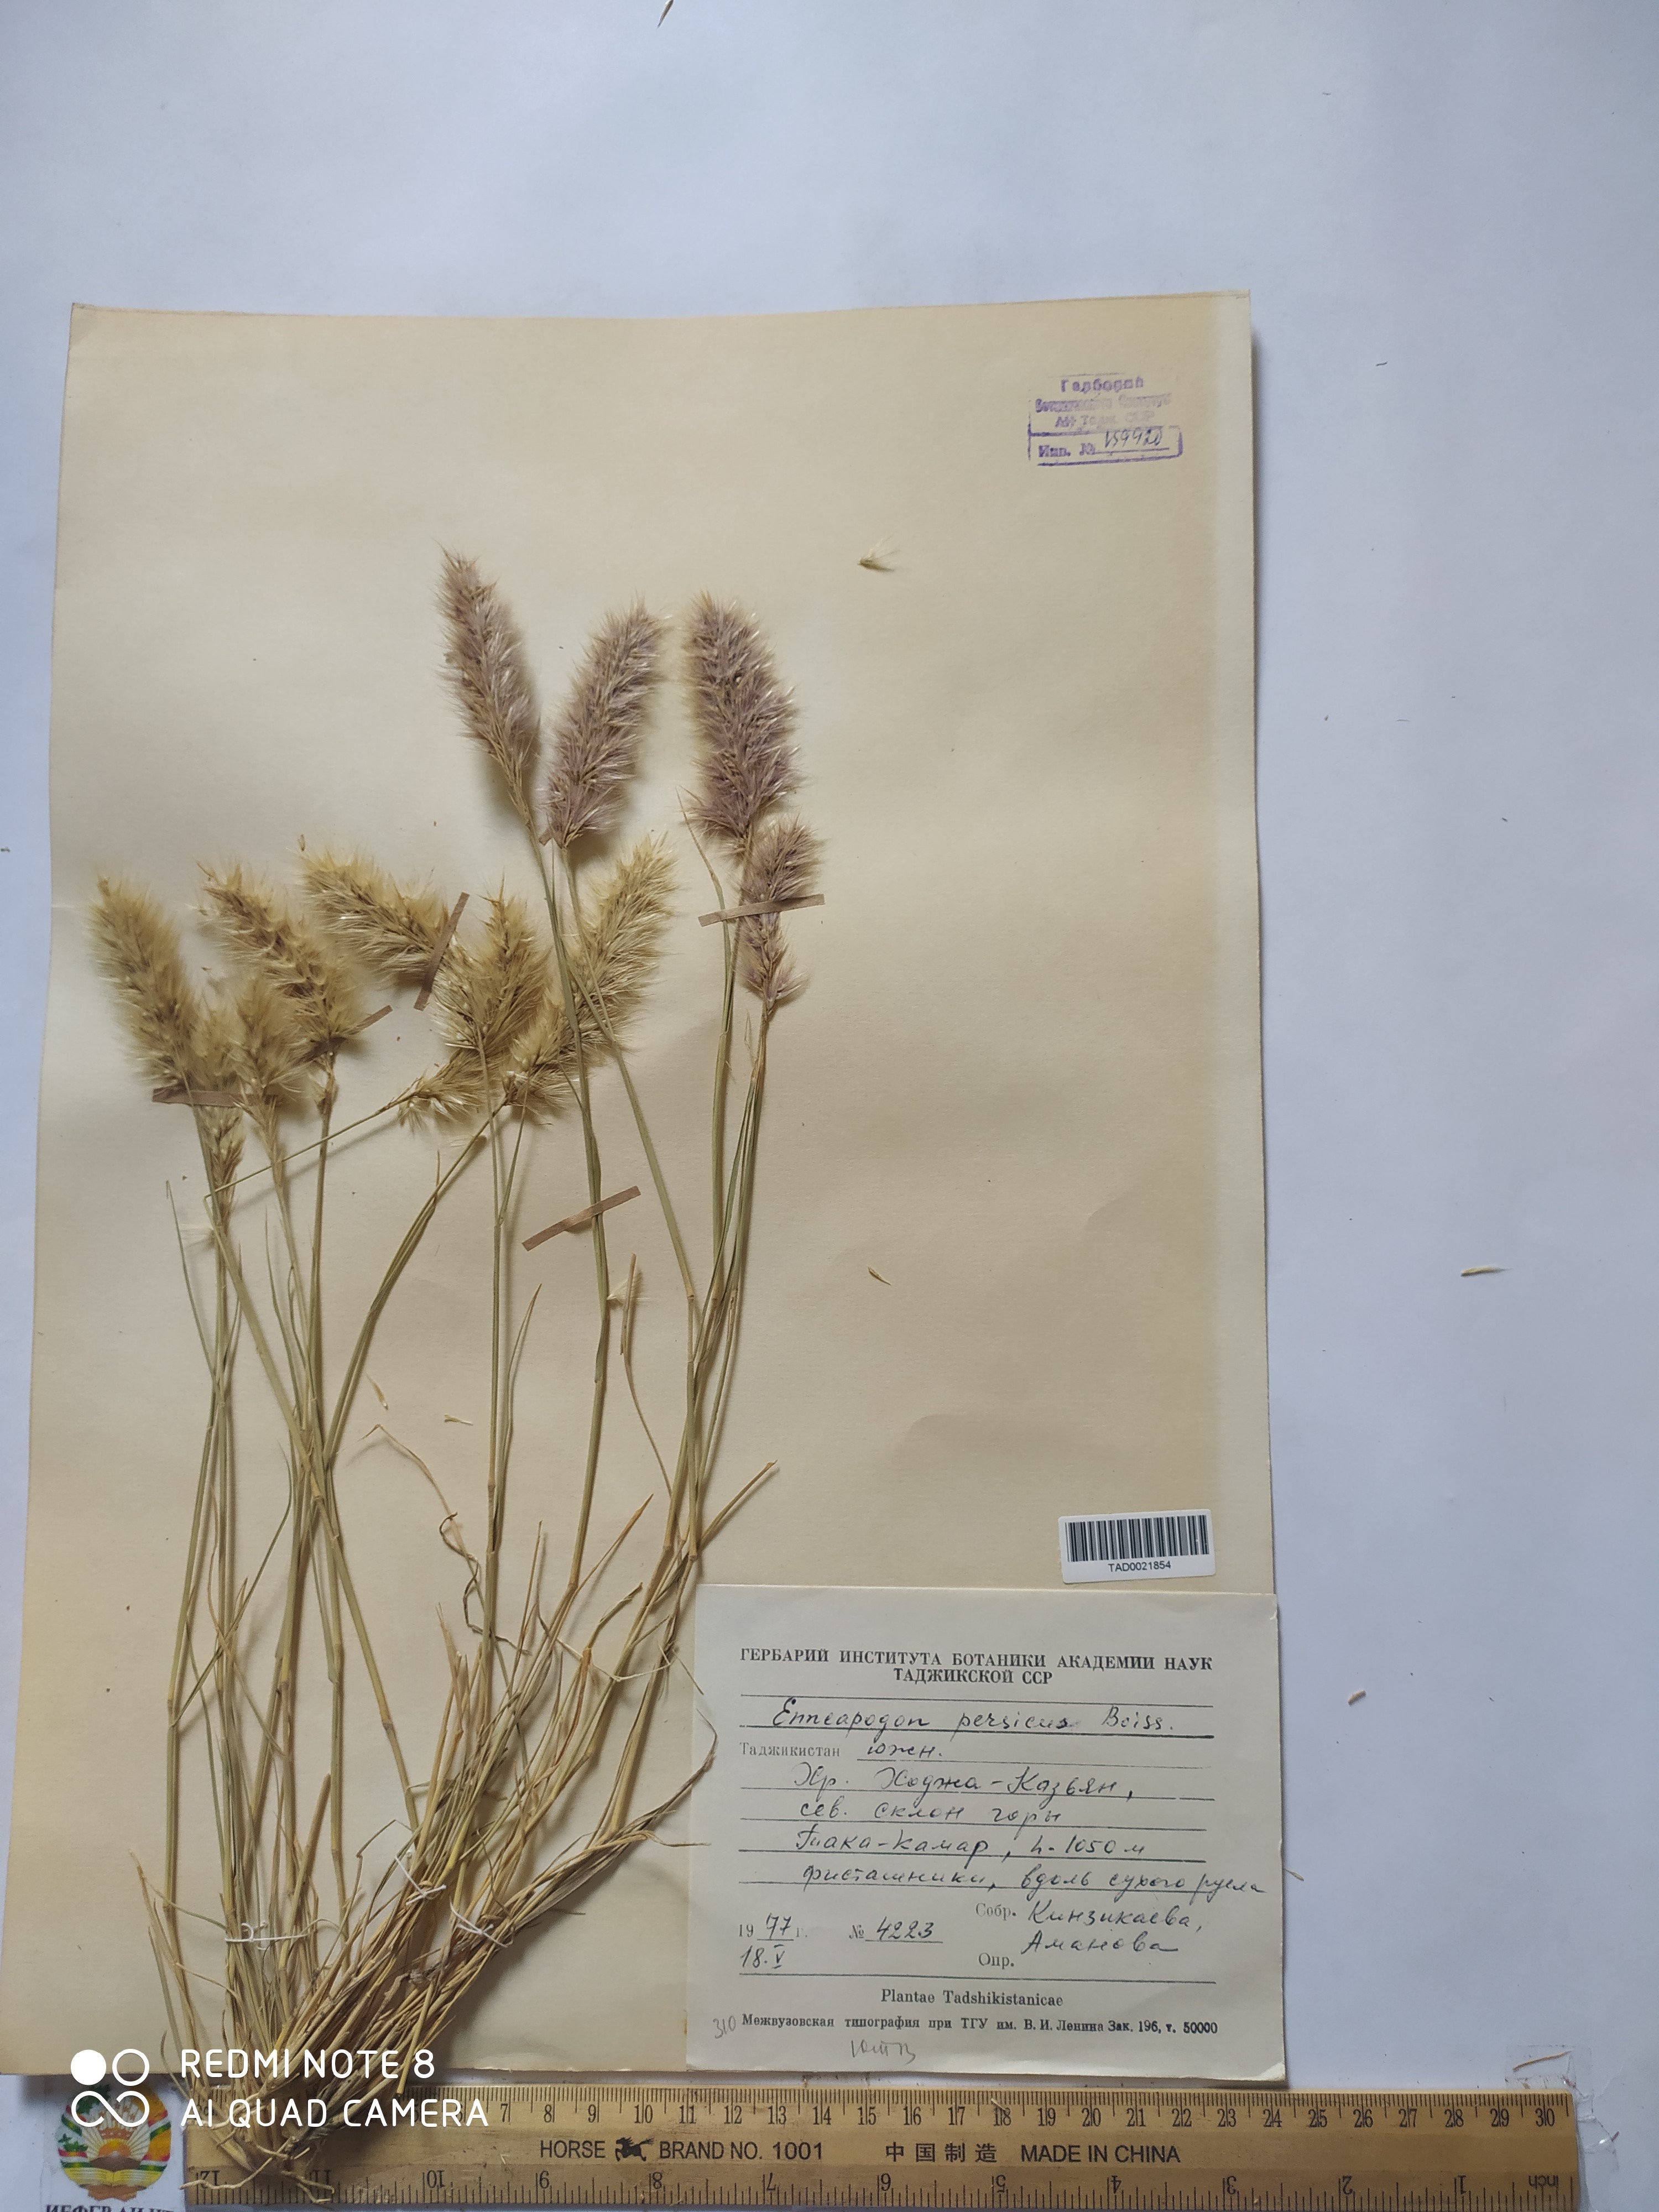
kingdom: Plantae
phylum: Tracheophyta
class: Liliopsida
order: Poales
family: Poaceae
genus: Enneapogon
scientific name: Enneapogon persicus
